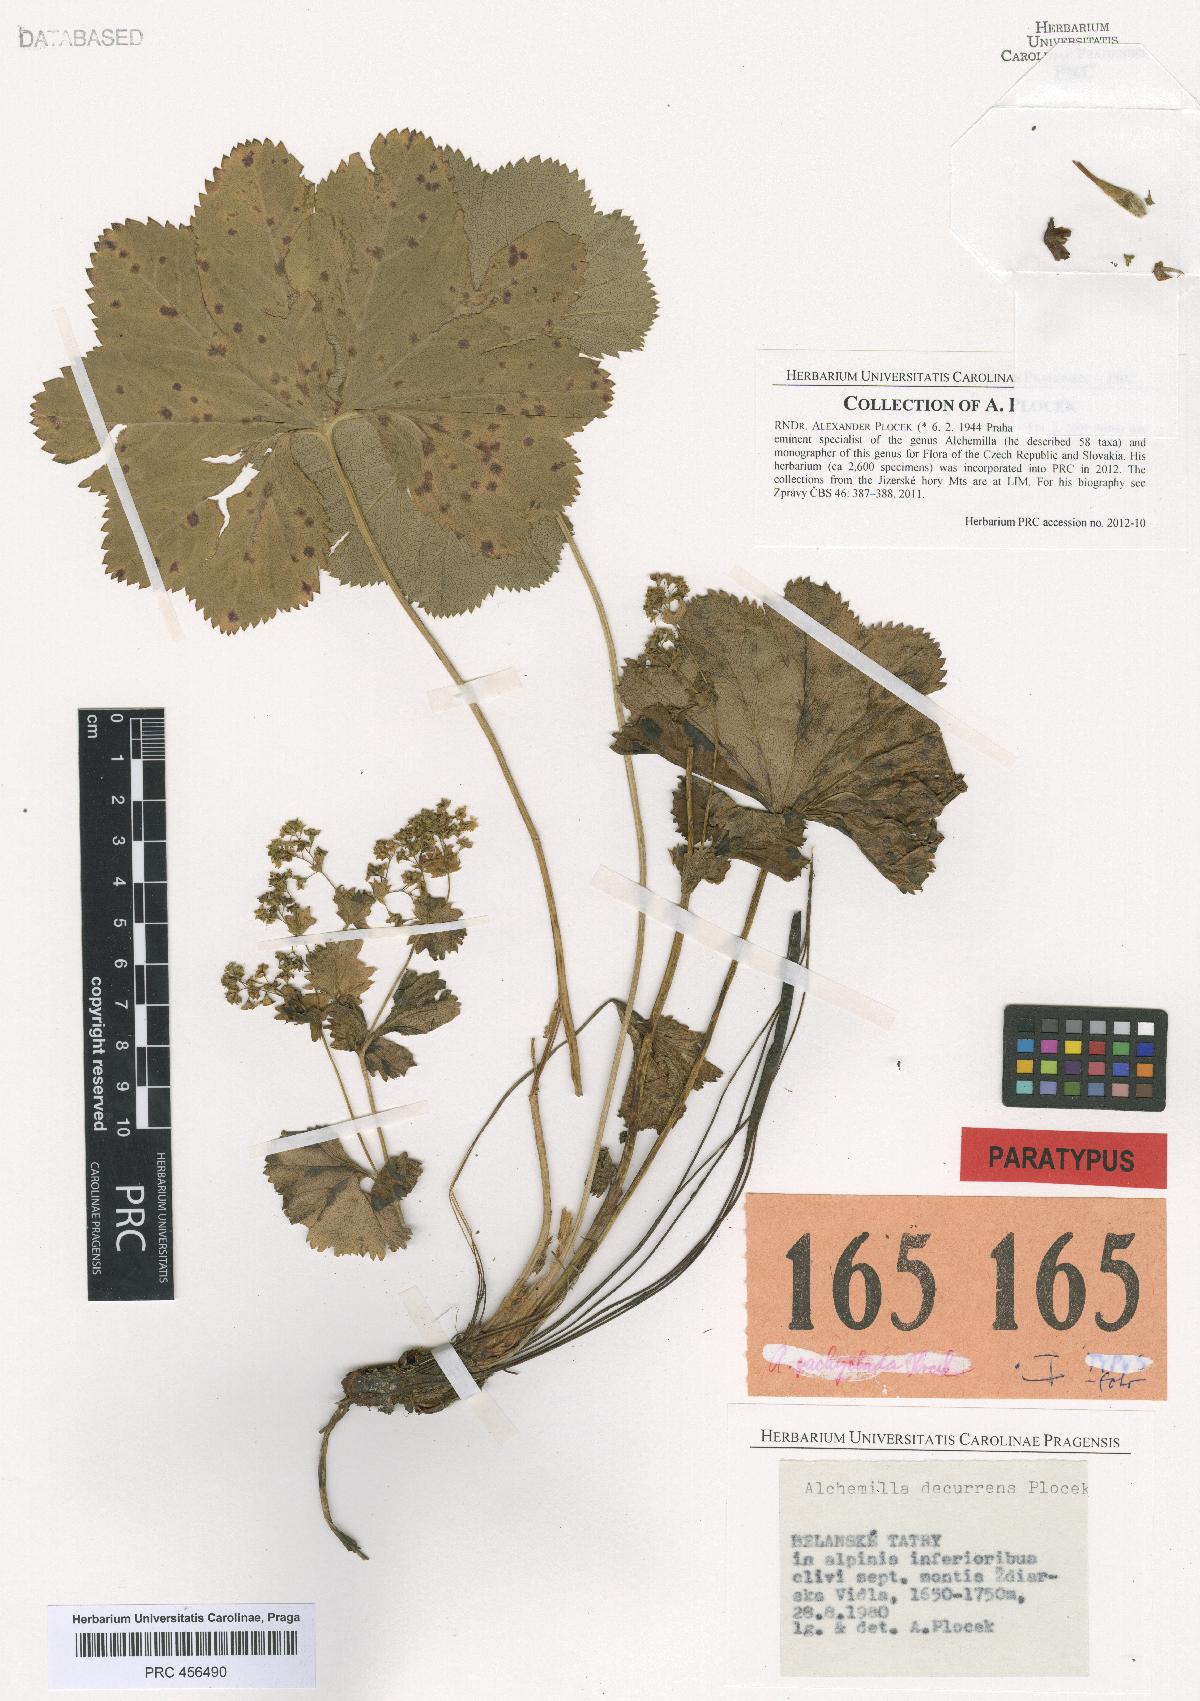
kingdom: Plantae
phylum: Tracheophyta
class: Magnoliopsida
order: Rosales
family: Rosaceae
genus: Alchemilla
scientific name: Alchemilla decurrens
